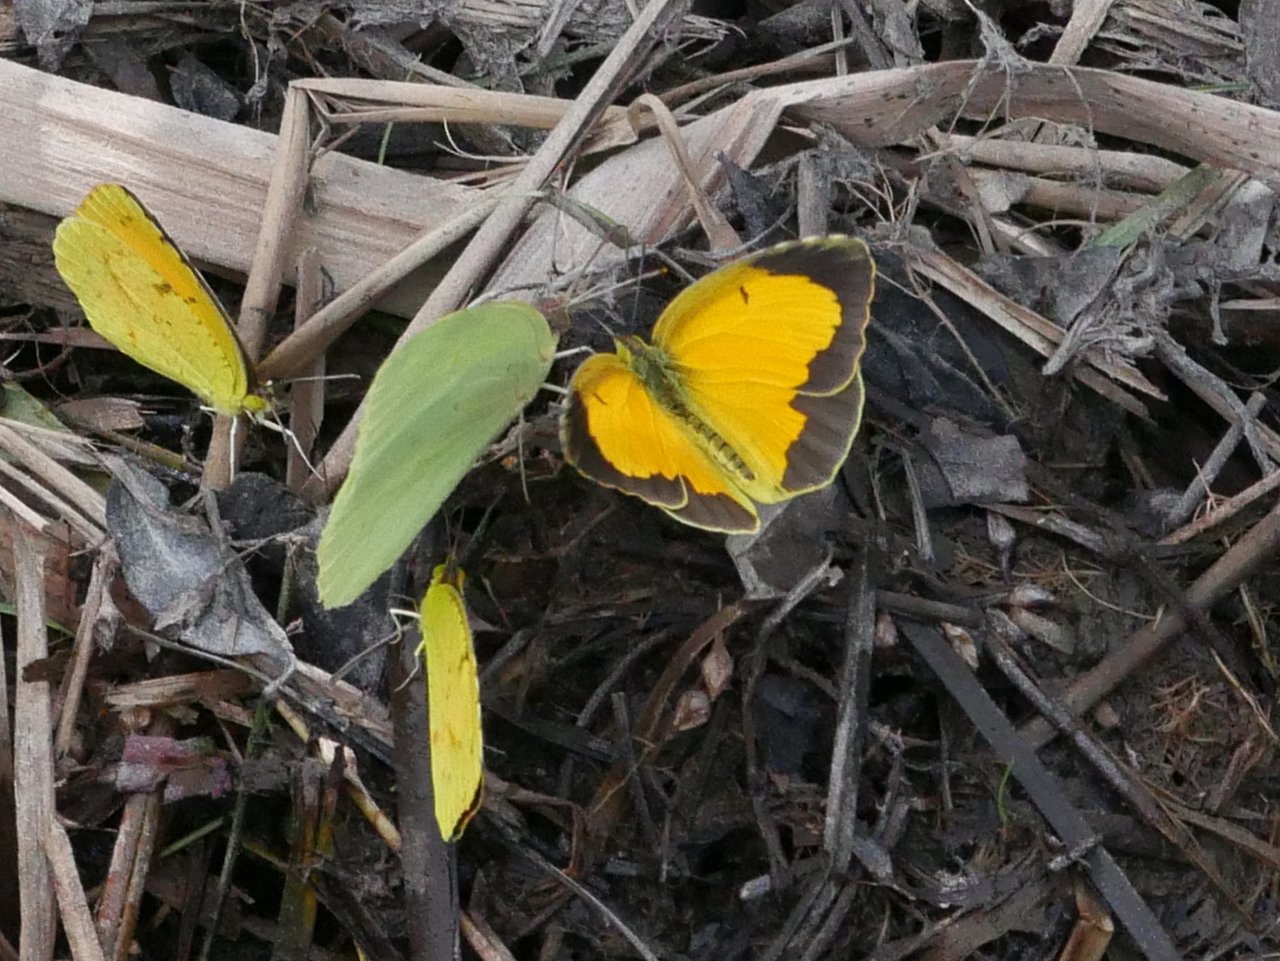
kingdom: Animalia
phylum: Arthropoda
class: Insecta
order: Lepidoptera
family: Pieridae
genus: Colias
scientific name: Colias eurytheme
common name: Orange Sulphur
